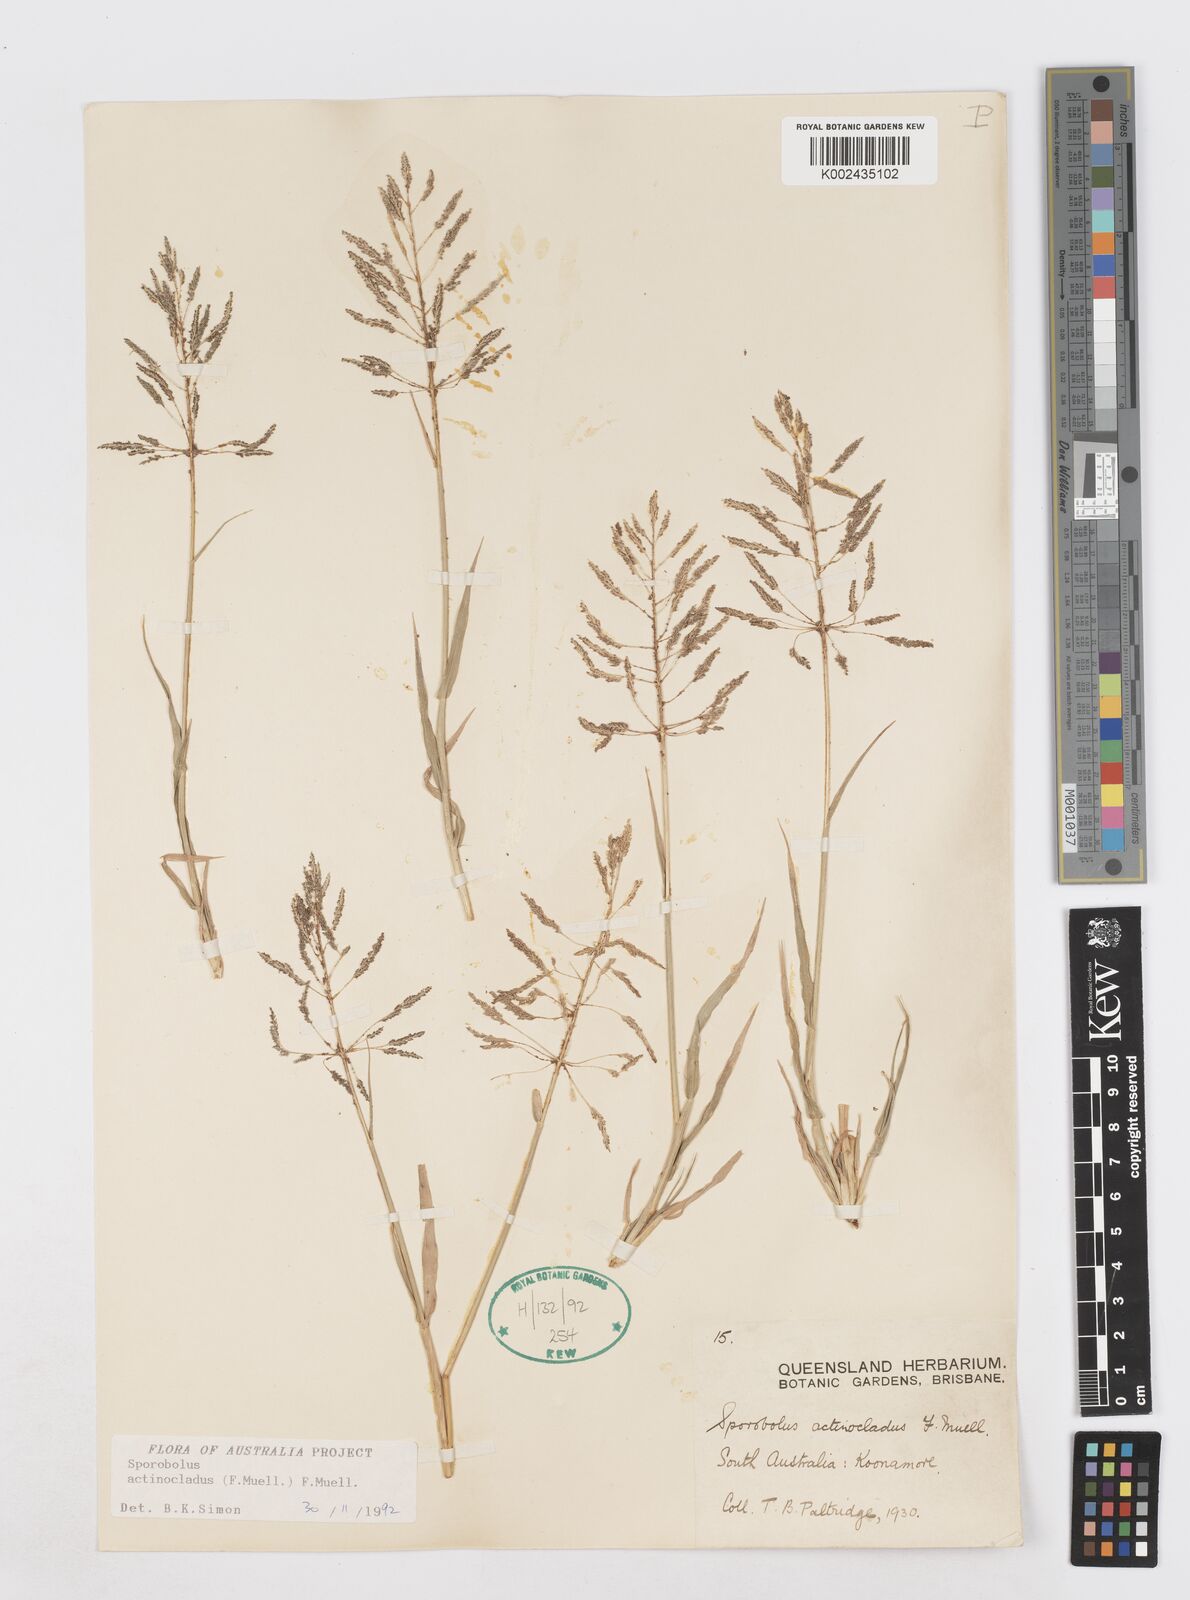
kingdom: Plantae
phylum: Tracheophyta
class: Liliopsida
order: Poales
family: Poaceae
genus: Sporobolus
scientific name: Sporobolus actinocladus
